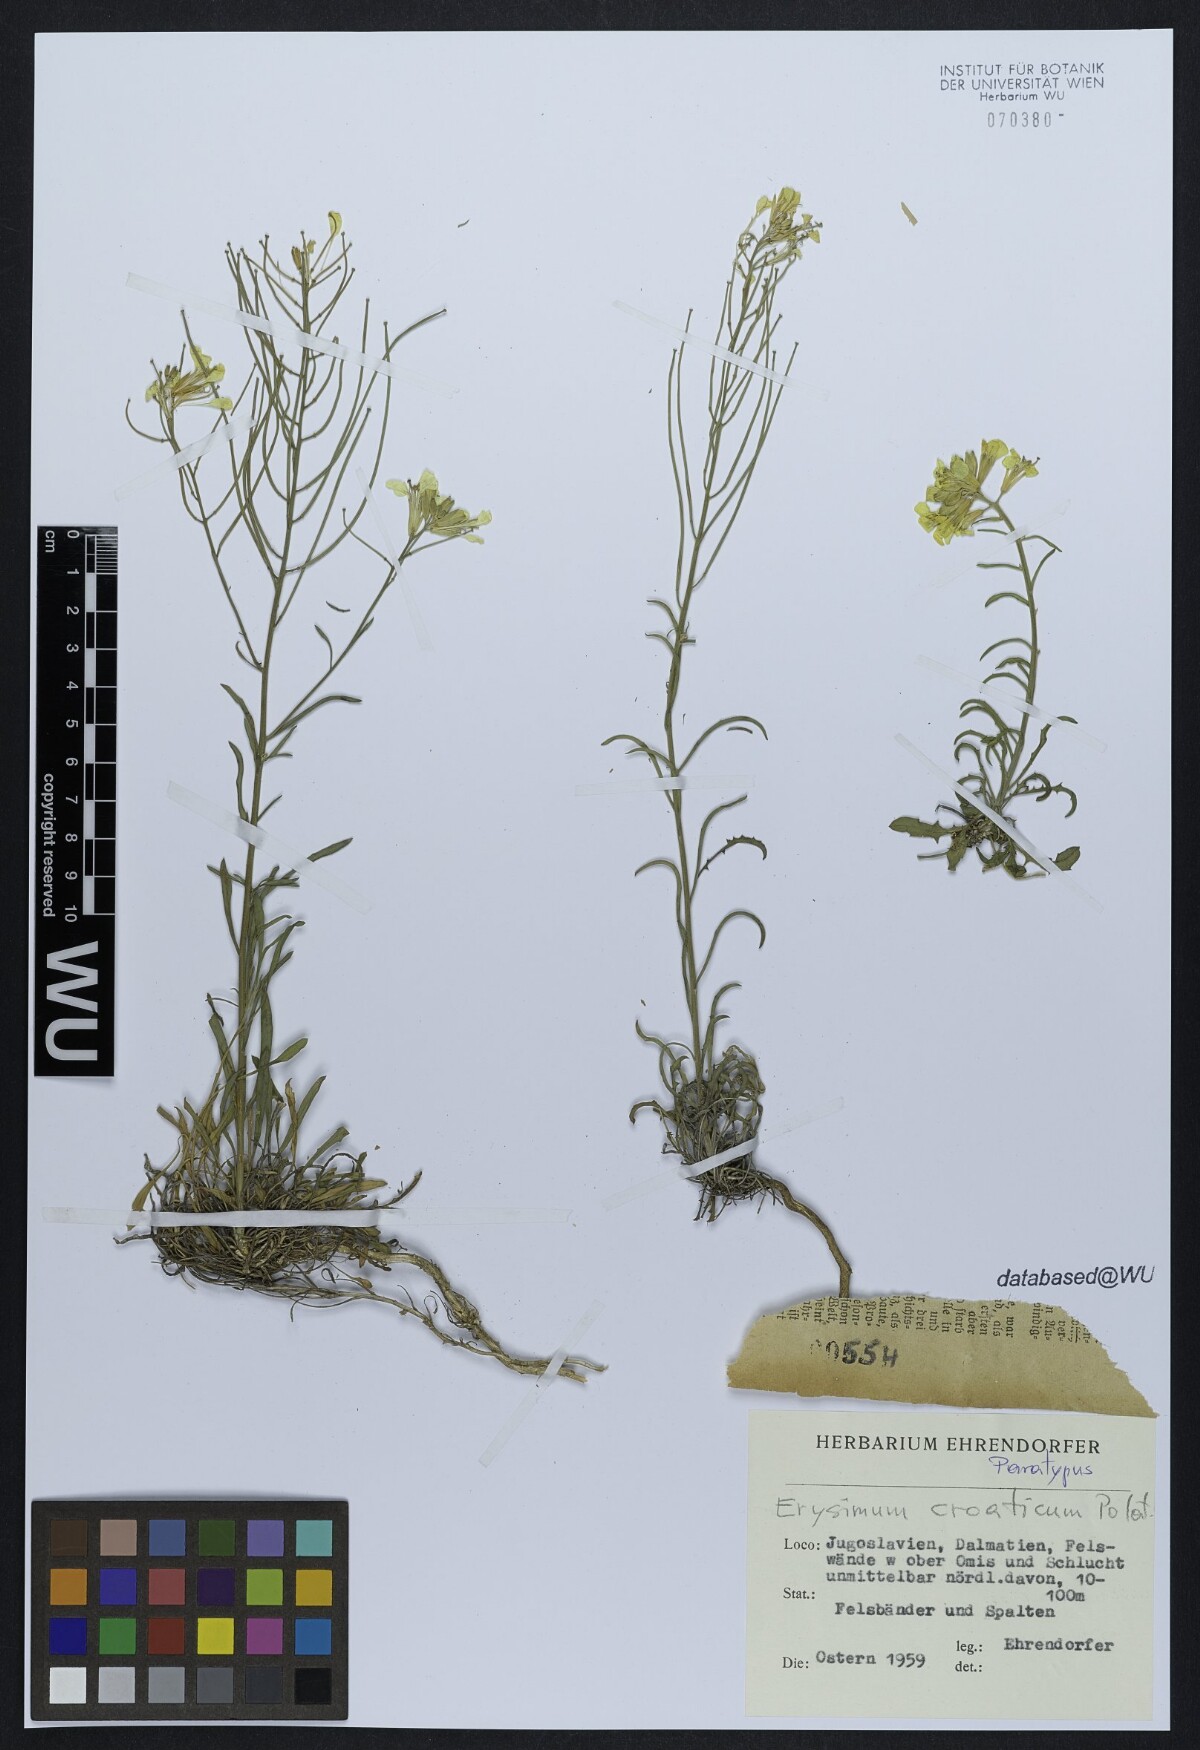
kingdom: Plantae
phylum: Tracheophyta
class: Magnoliopsida
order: Brassicales
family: Brassicaceae
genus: Erysimum
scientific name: Erysimum croaticum
